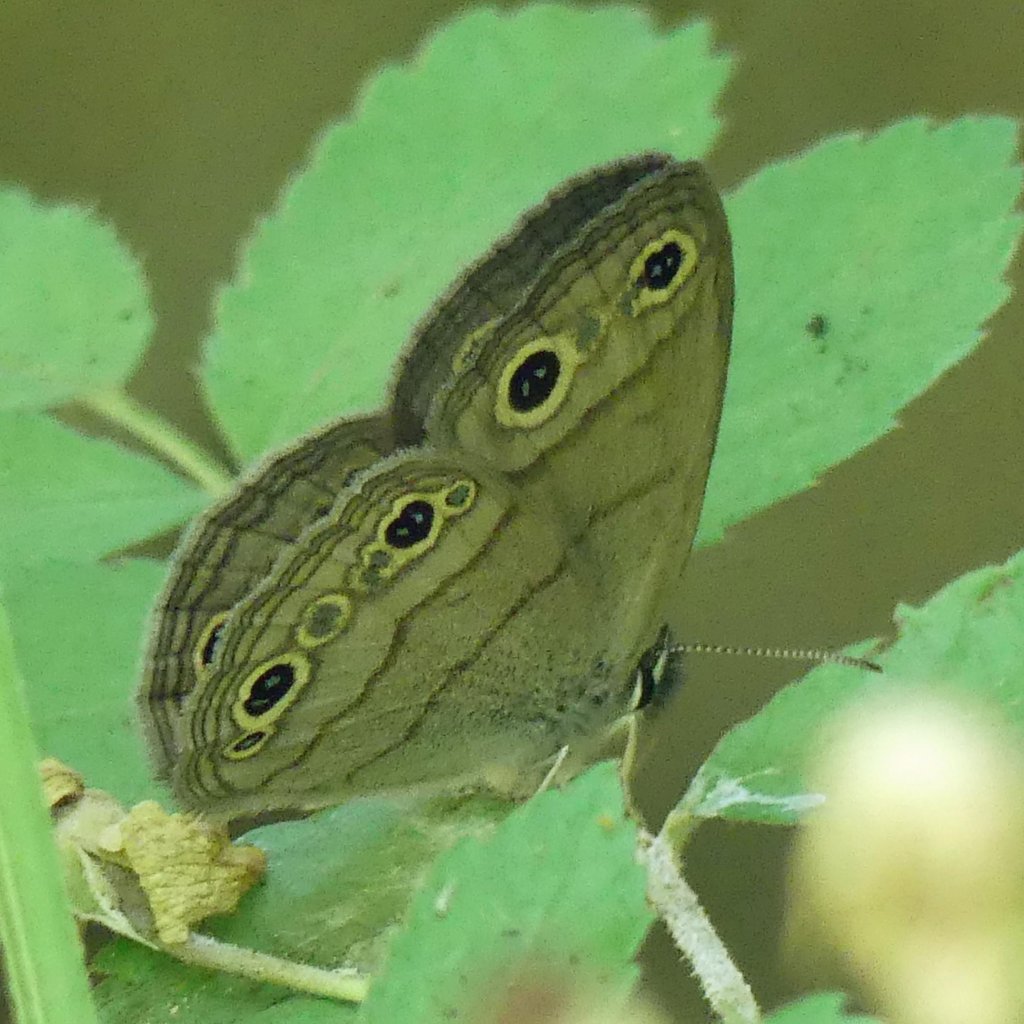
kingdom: Animalia
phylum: Arthropoda
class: Insecta
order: Lepidoptera
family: Nymphalidae
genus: Euptychia
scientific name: Euptychia cymela
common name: Little Wood Satyr
